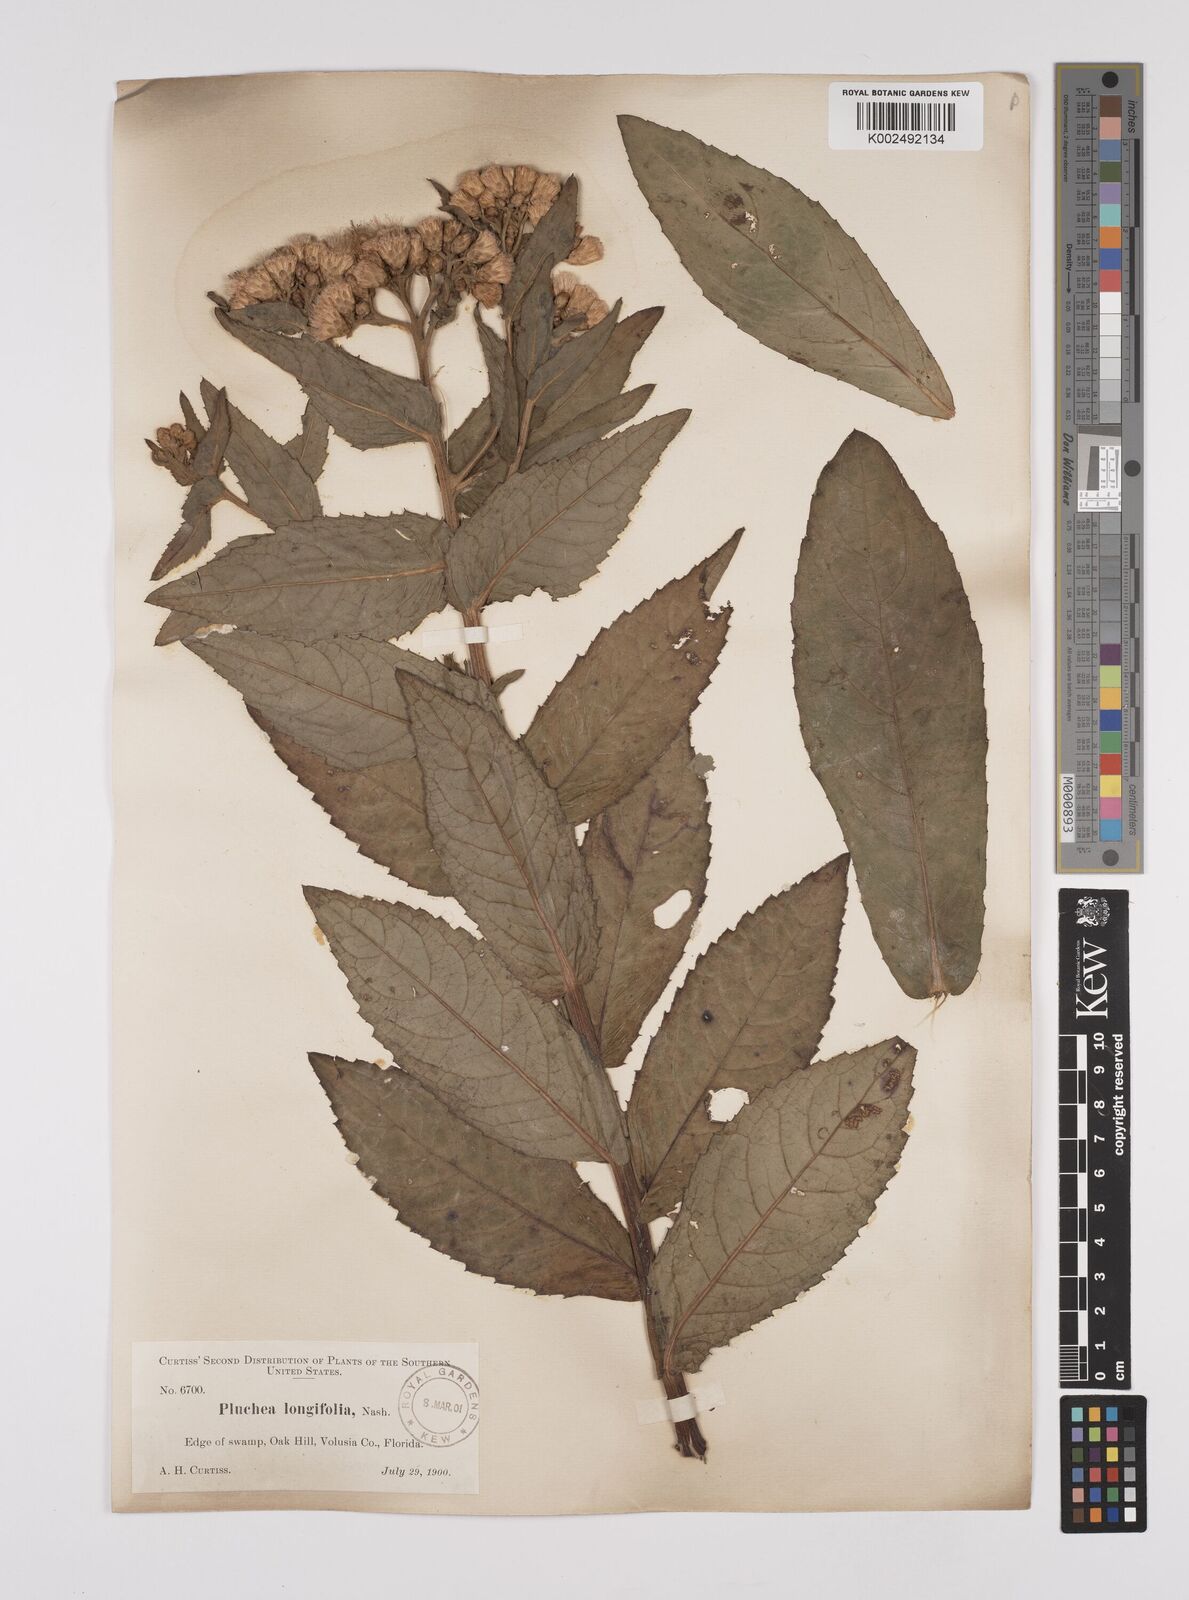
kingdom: Plantae
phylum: Tracheophyta
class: Magnoliopsida
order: Asterales
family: Asteraceae
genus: Pluchea
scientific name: Pluchea longifolia
